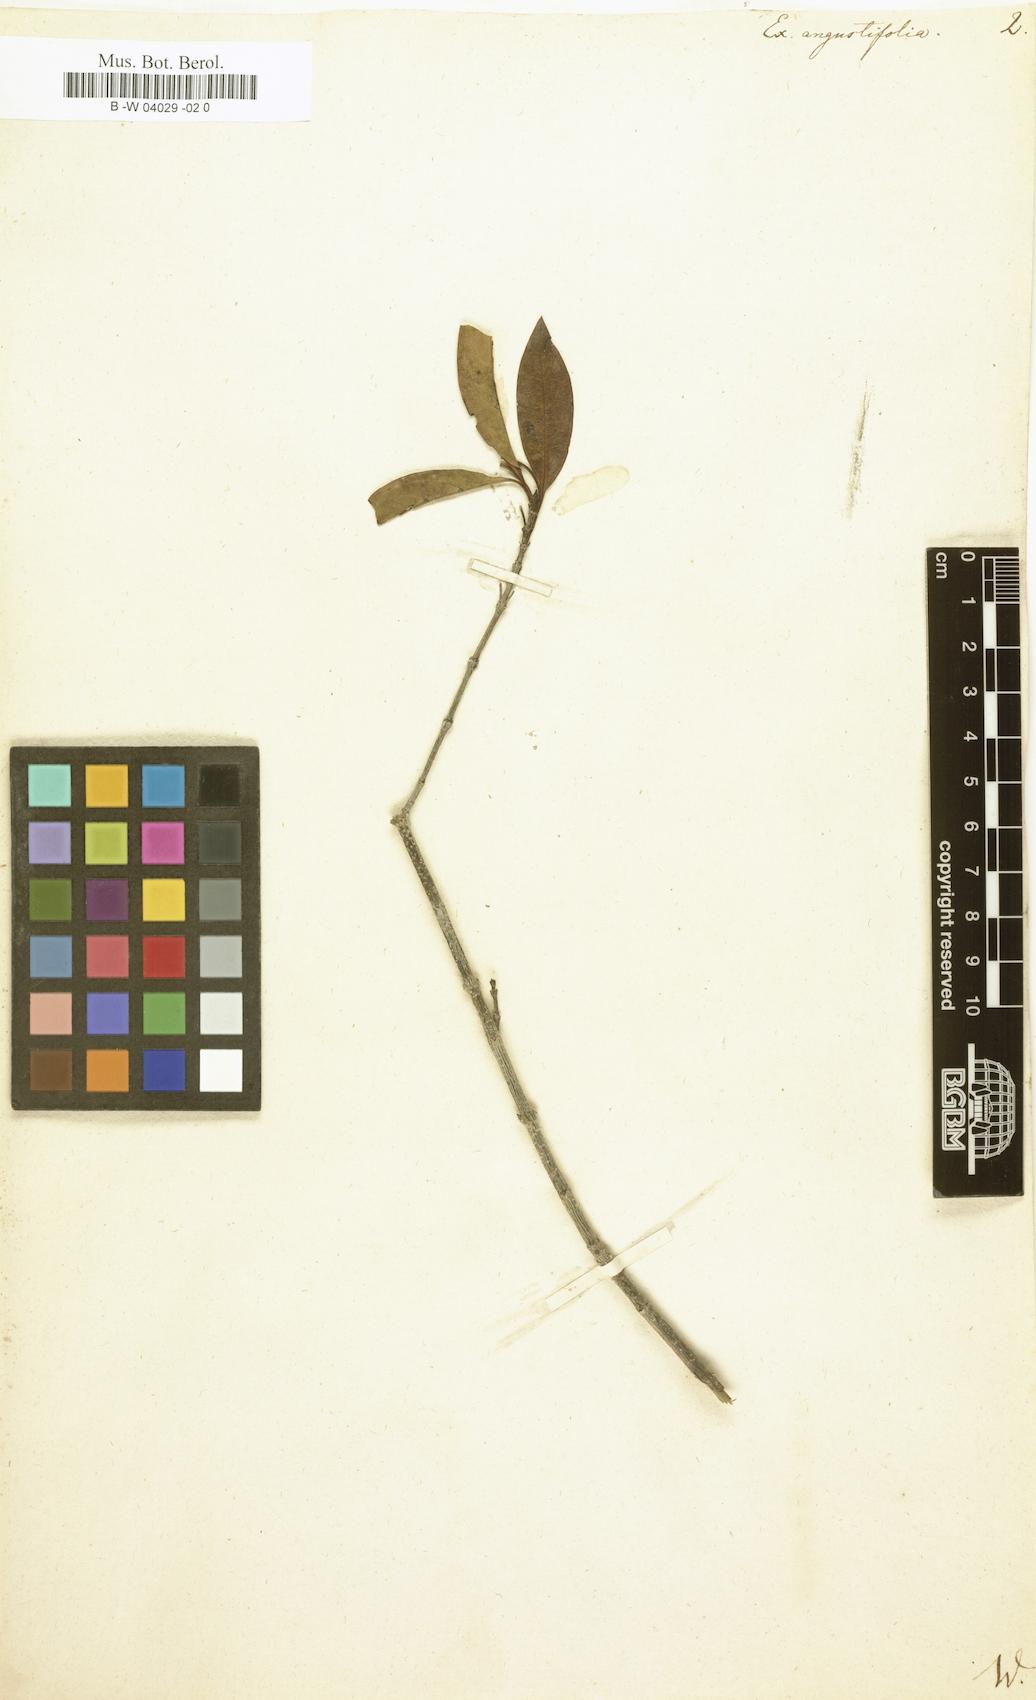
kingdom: Plantae
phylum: Tracheophyta
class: Magnoliopsida
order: Gentianales
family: Rubiaceae
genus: Solenandra
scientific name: Solenandra angustifolia
